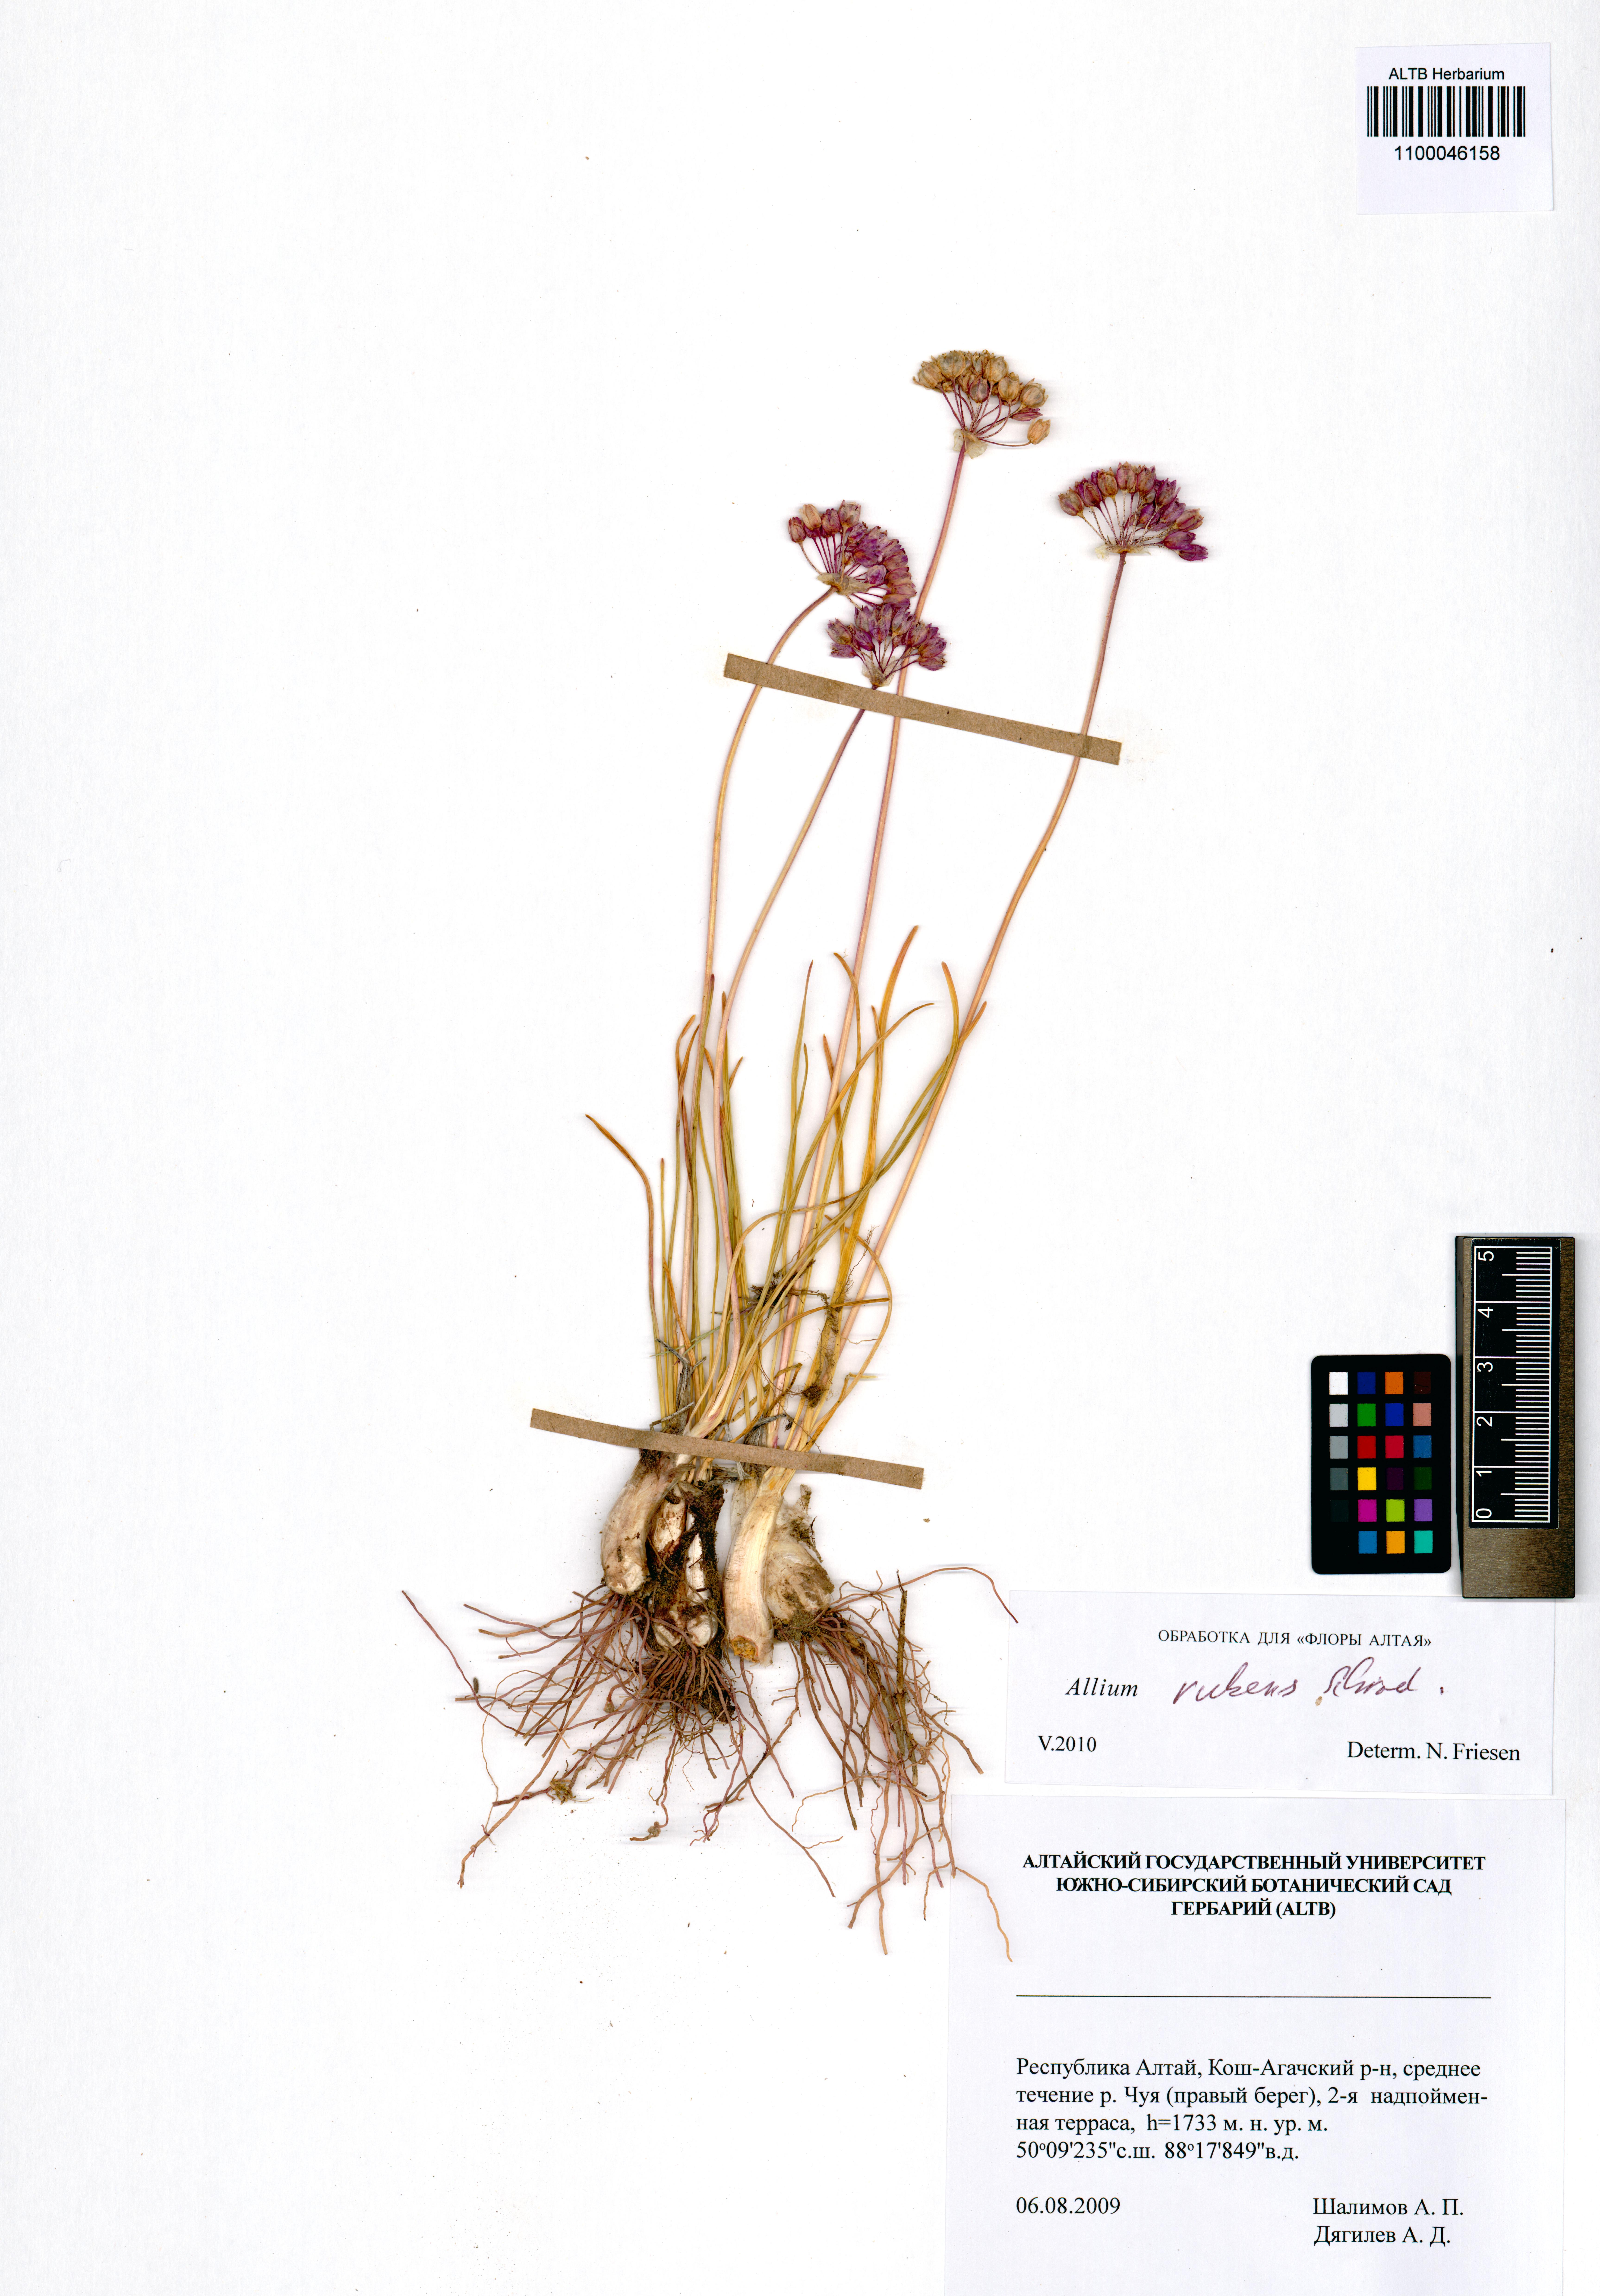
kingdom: Plantae
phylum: Tracheophyta
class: Liliopsida
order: Asparagales
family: Amaryllidaceae
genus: Allium
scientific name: Allium rubens
